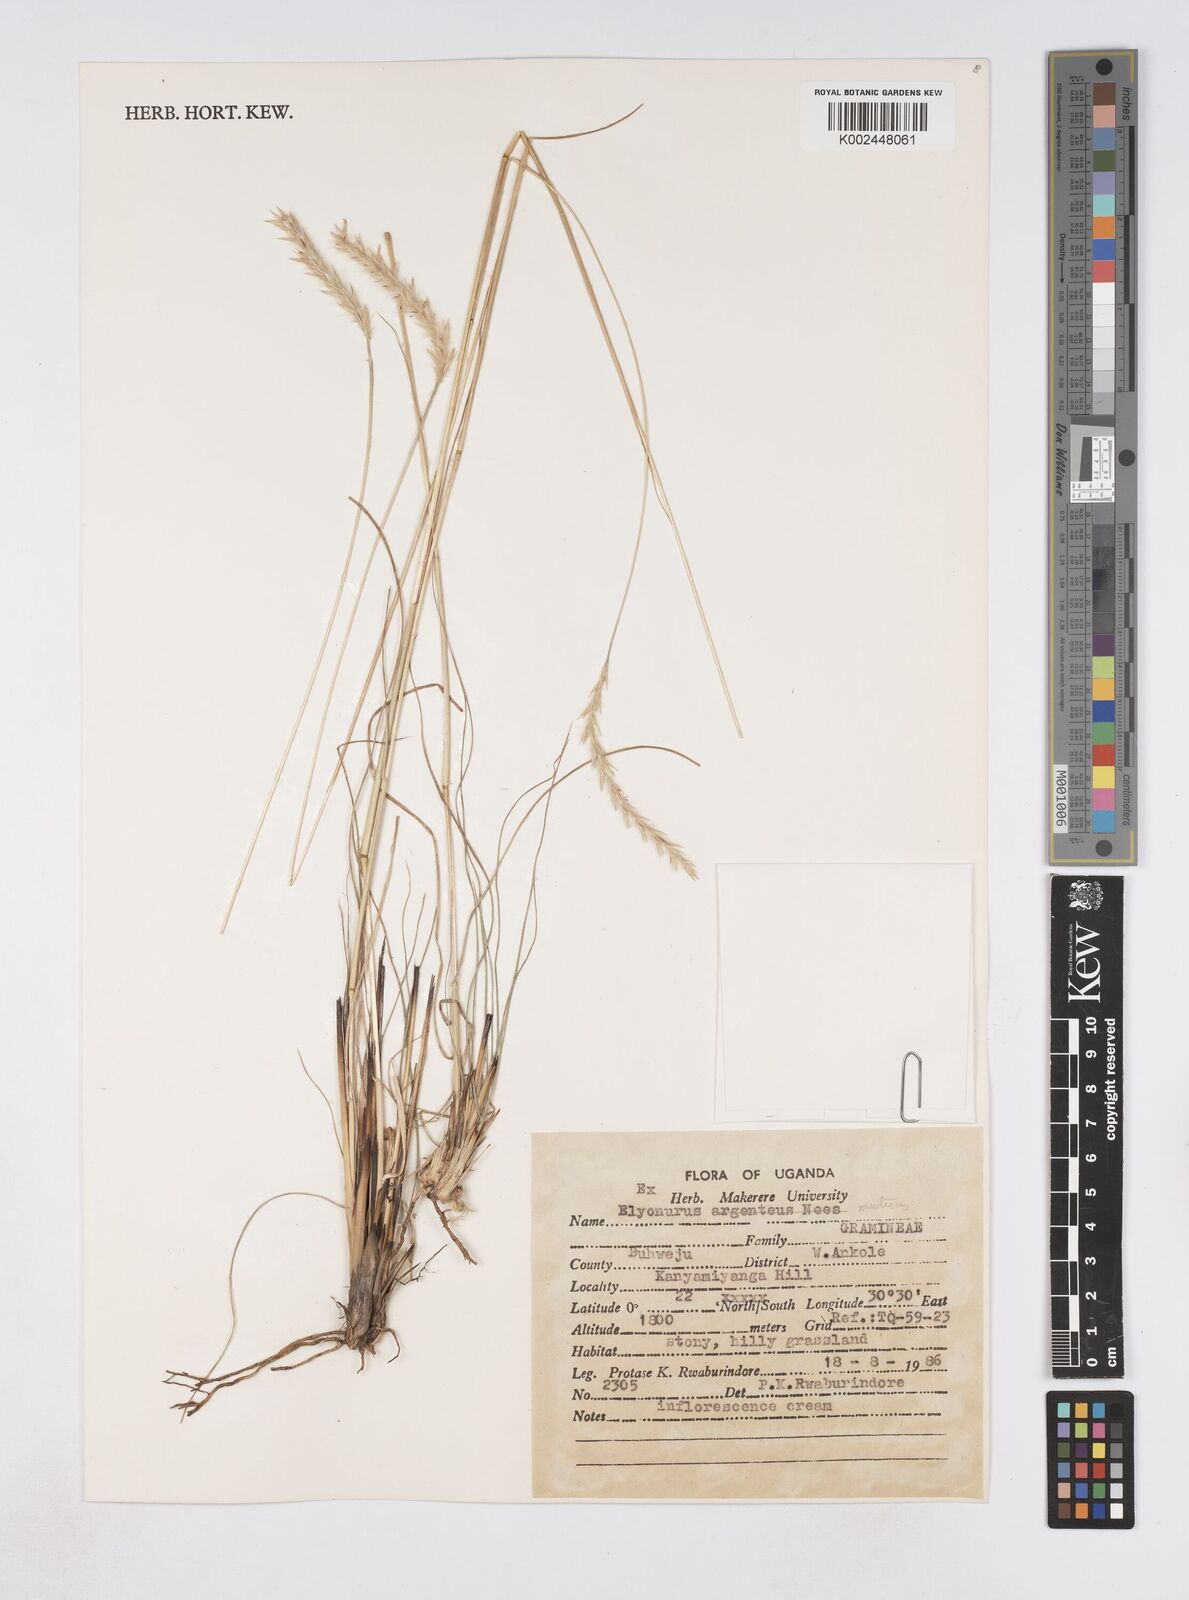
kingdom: Plantae
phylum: Tracheophyta
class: Liliopsida
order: Poales
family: Poaceae
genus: Elionurus
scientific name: Elionurus muticus
